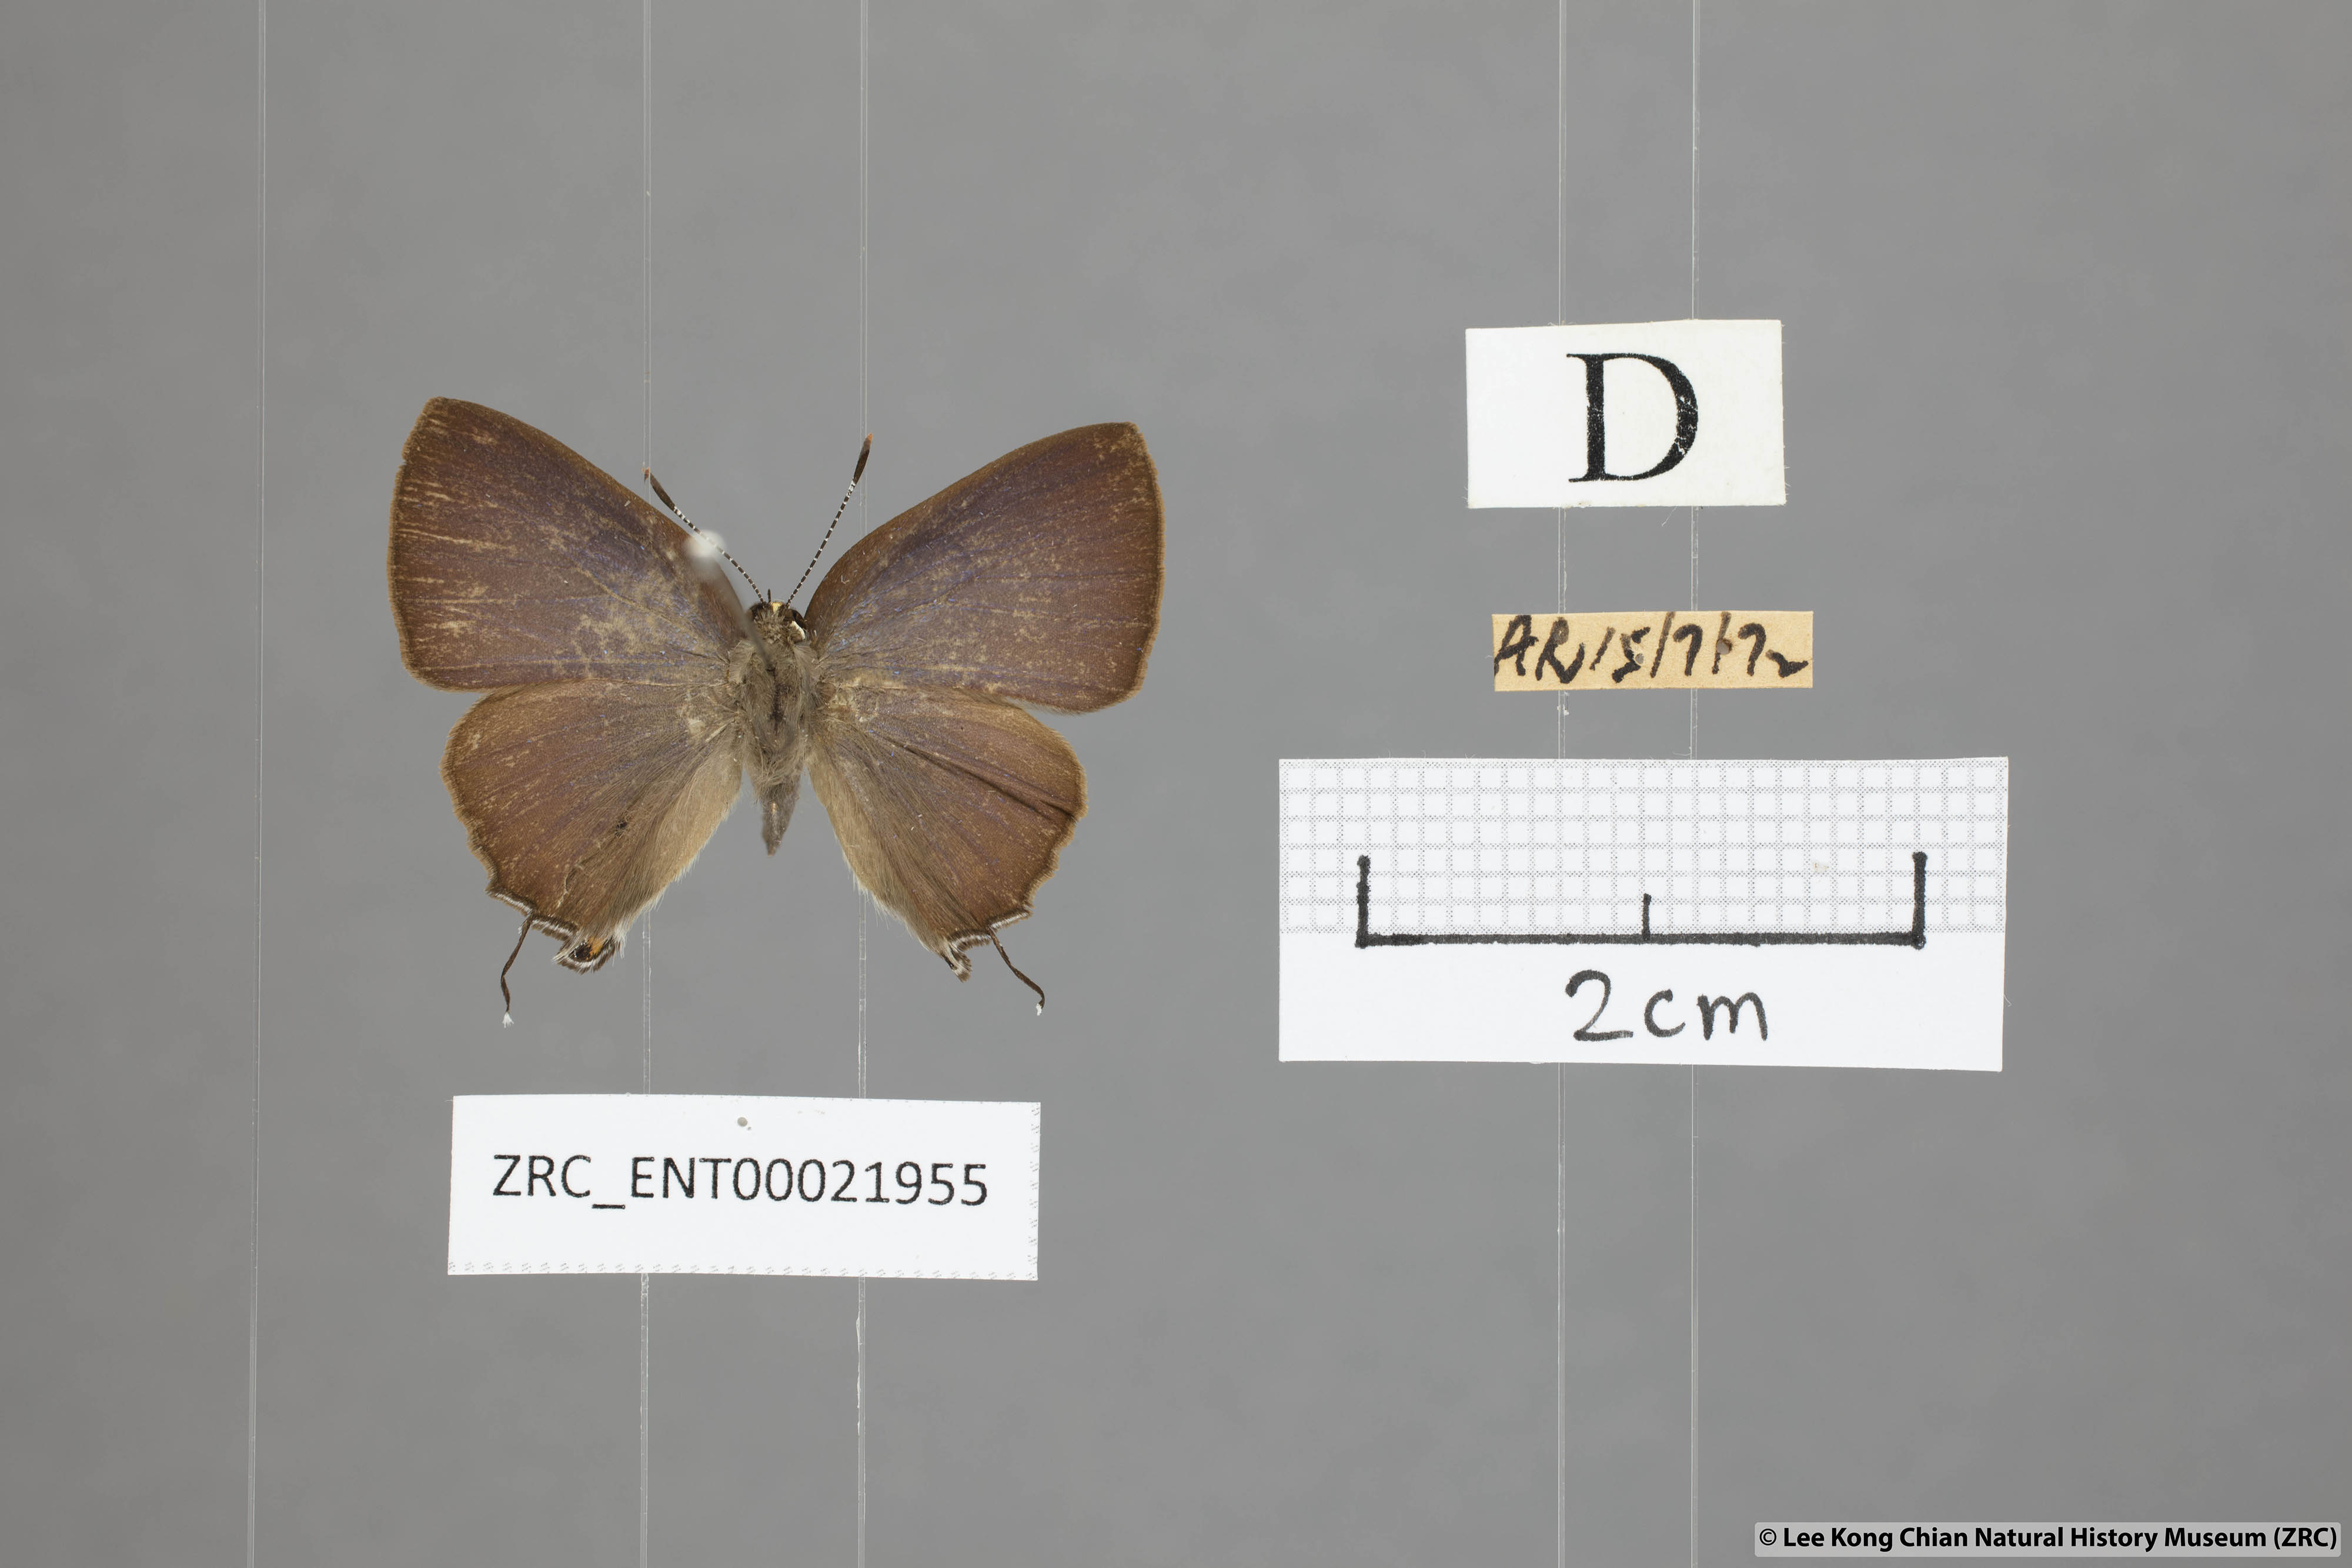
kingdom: Animalia
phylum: Arthropoda
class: Insecta
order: Lepidoptera
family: Lycaenidae
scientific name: Lycaenidae
